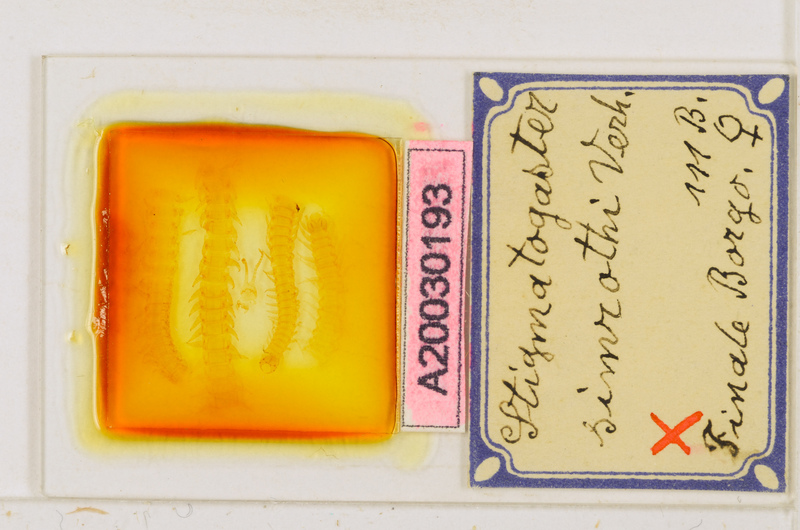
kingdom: Animalia
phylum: Arthropoda
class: Chilopoda
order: Geophilomorpha
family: Himantariidae
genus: Stigmatogaster
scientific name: Stigmatogaster arcisherculis
